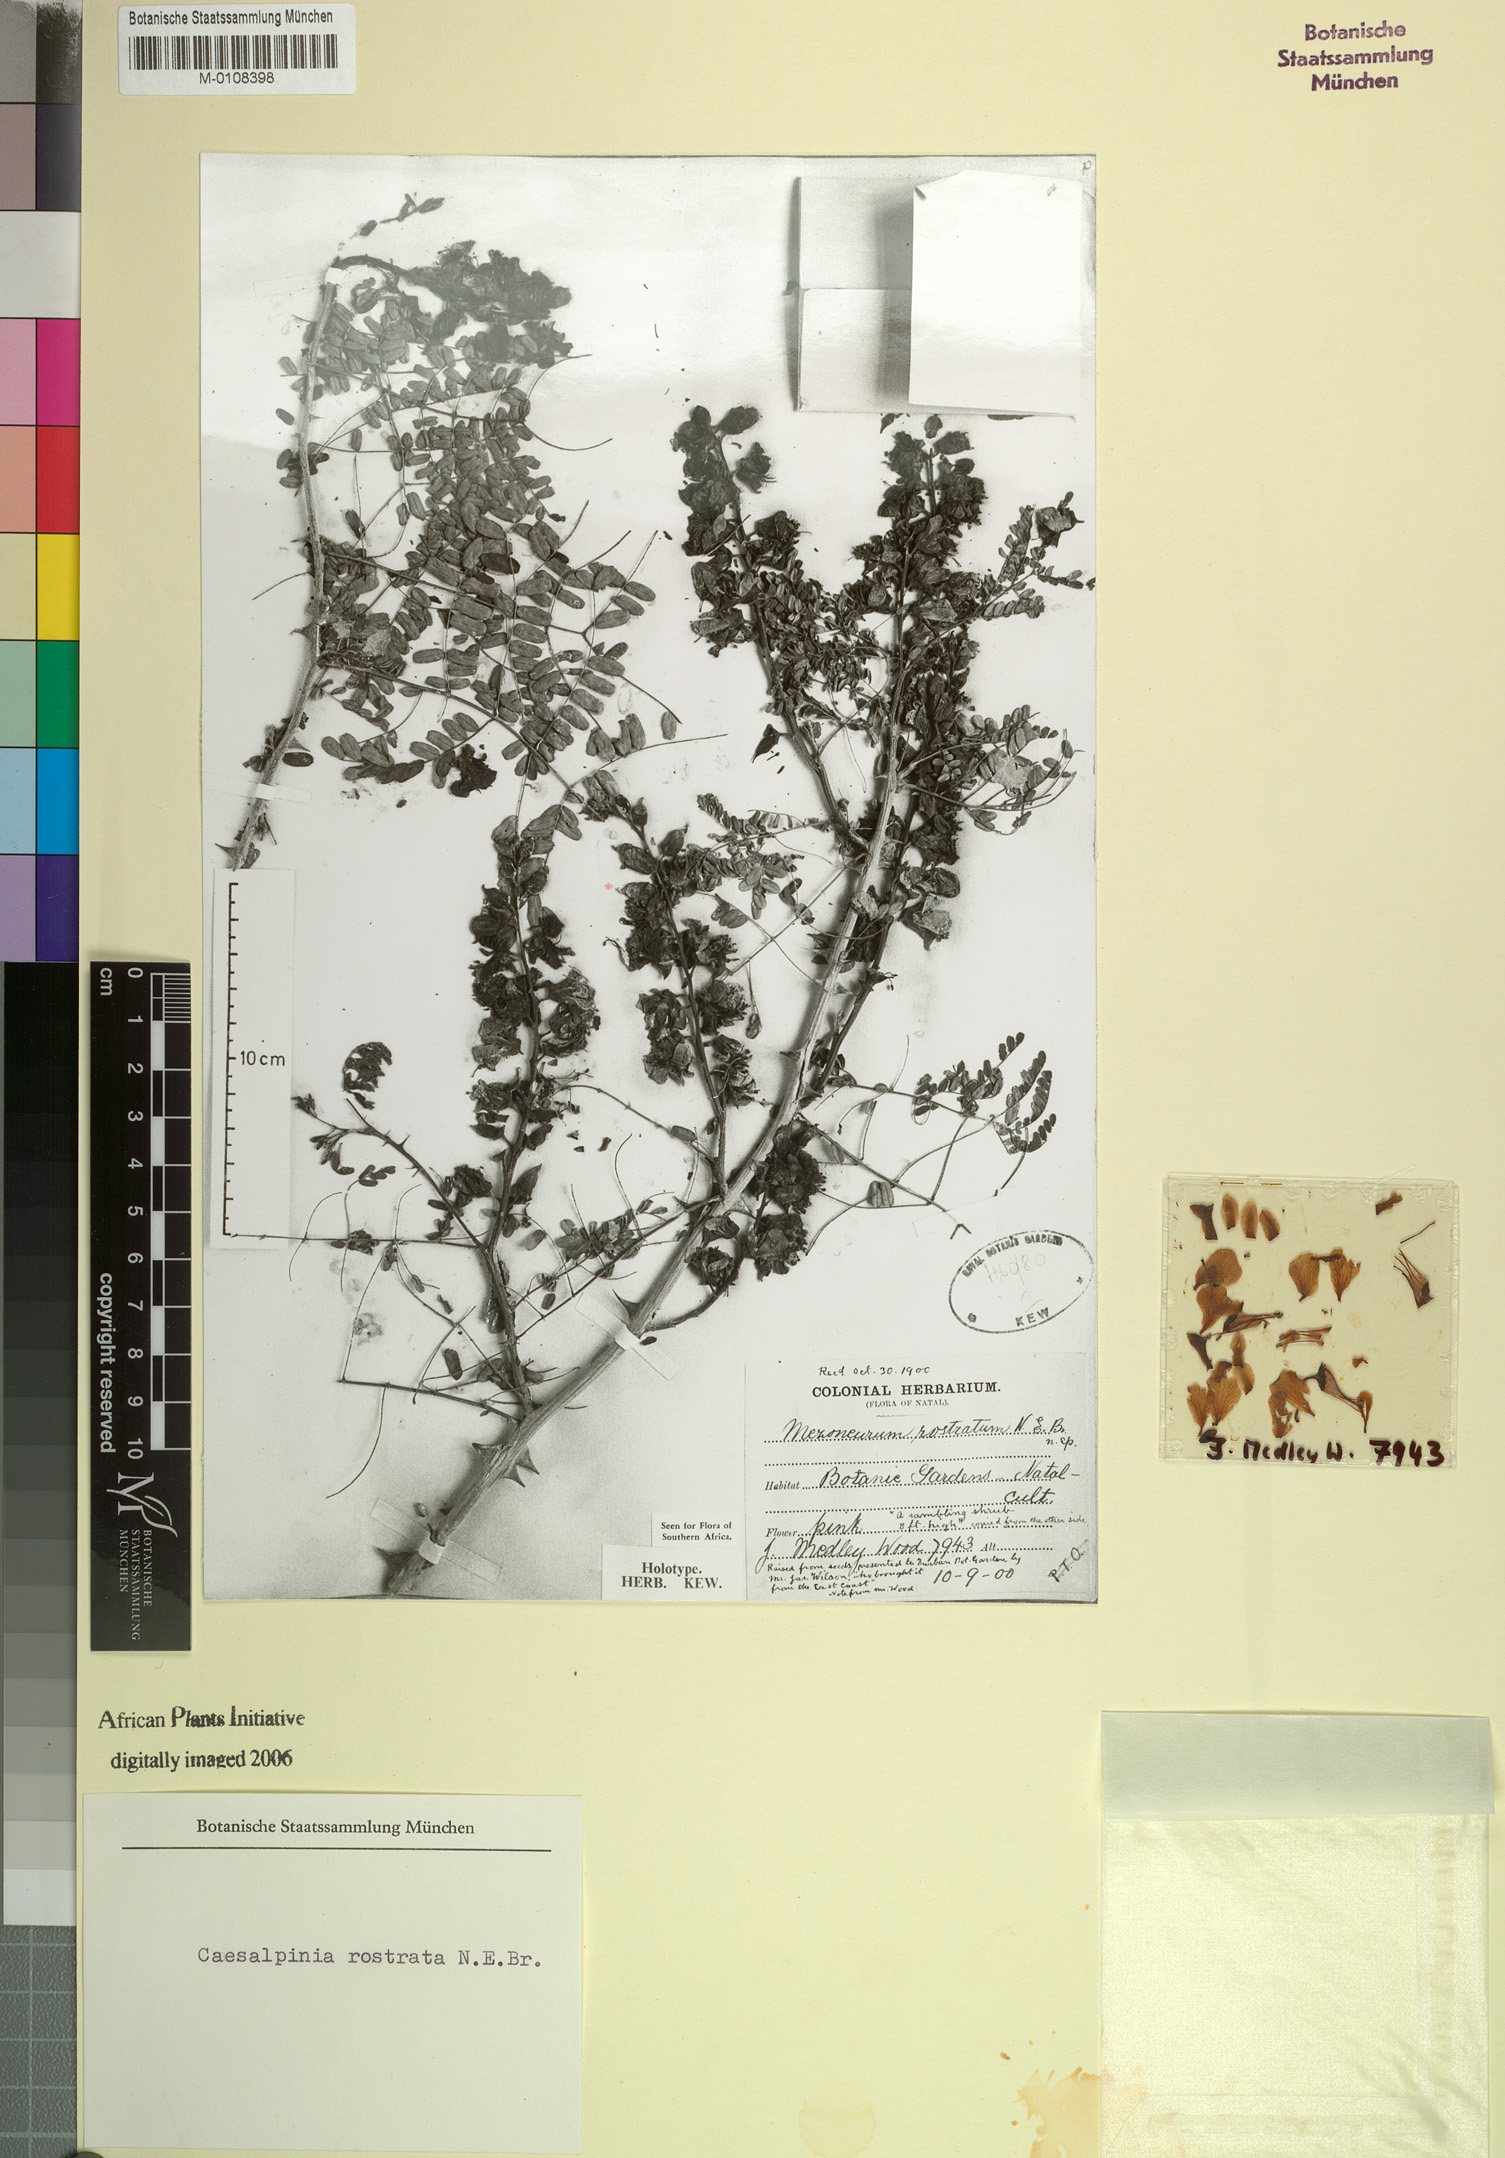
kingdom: Plantae
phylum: Tracheophyta
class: Magnoliopsida
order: Fabales
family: Fabaceae
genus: Gelrebia
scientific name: Gelrebia rostrata
